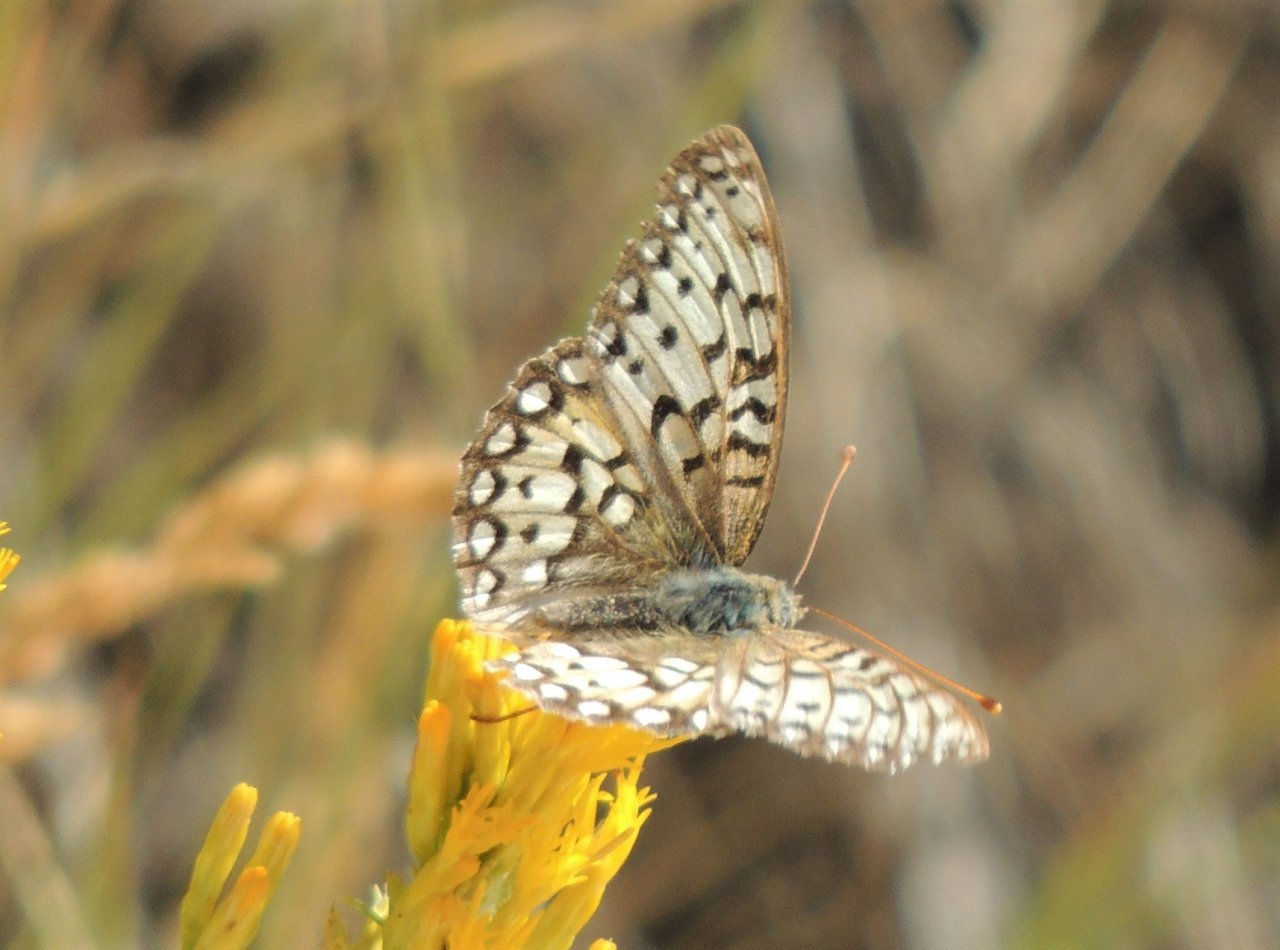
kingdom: Animalia
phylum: Arthropoda
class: Insecta
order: Lepidoptera
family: Nymphalidae
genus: Speyeria
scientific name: Speyeria callippe
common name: Callippe Fritillary
